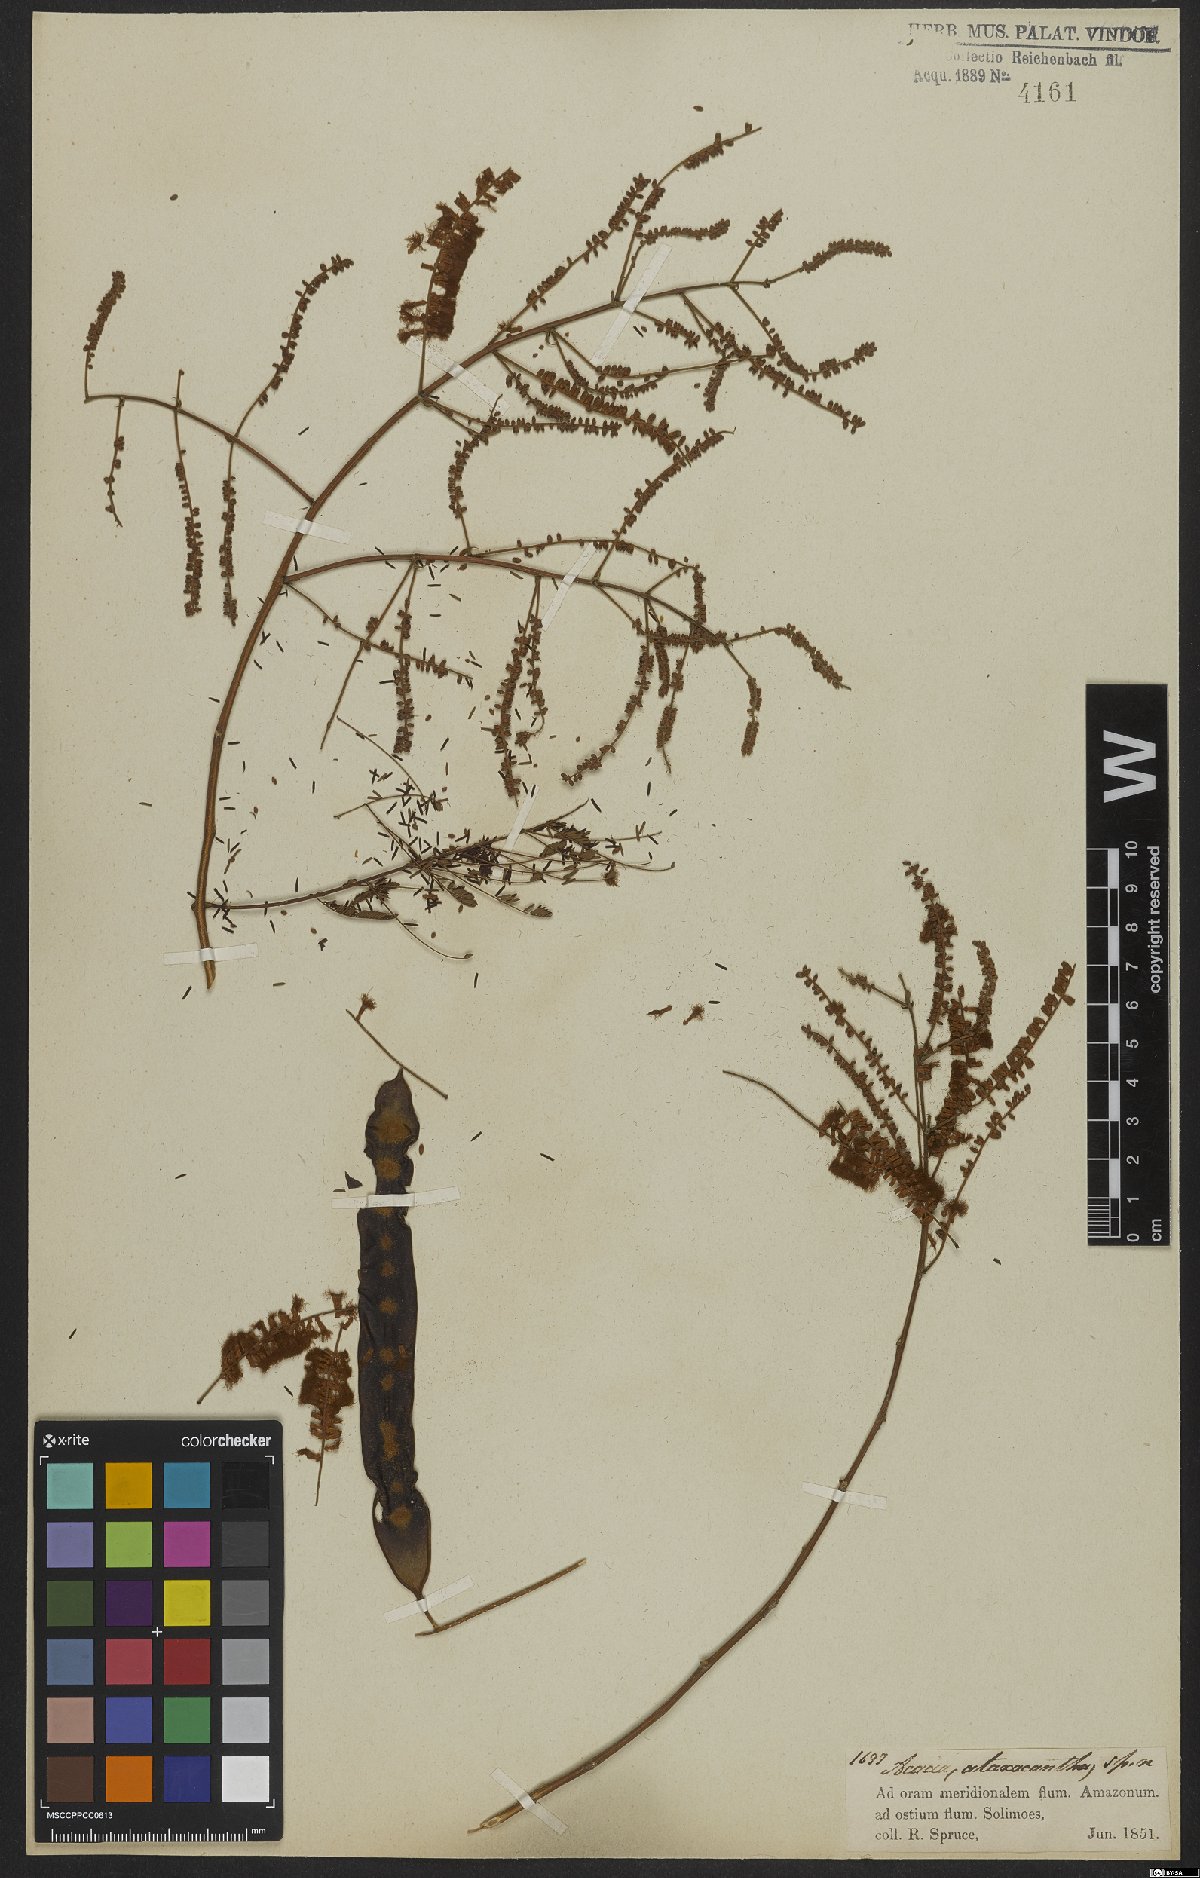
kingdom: Plantae
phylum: Tracheophyta
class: Magnoliopsida
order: Fabales
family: Fabaceae
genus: Senegalia
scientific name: Senegalia ataxacantha
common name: Flame acacia
